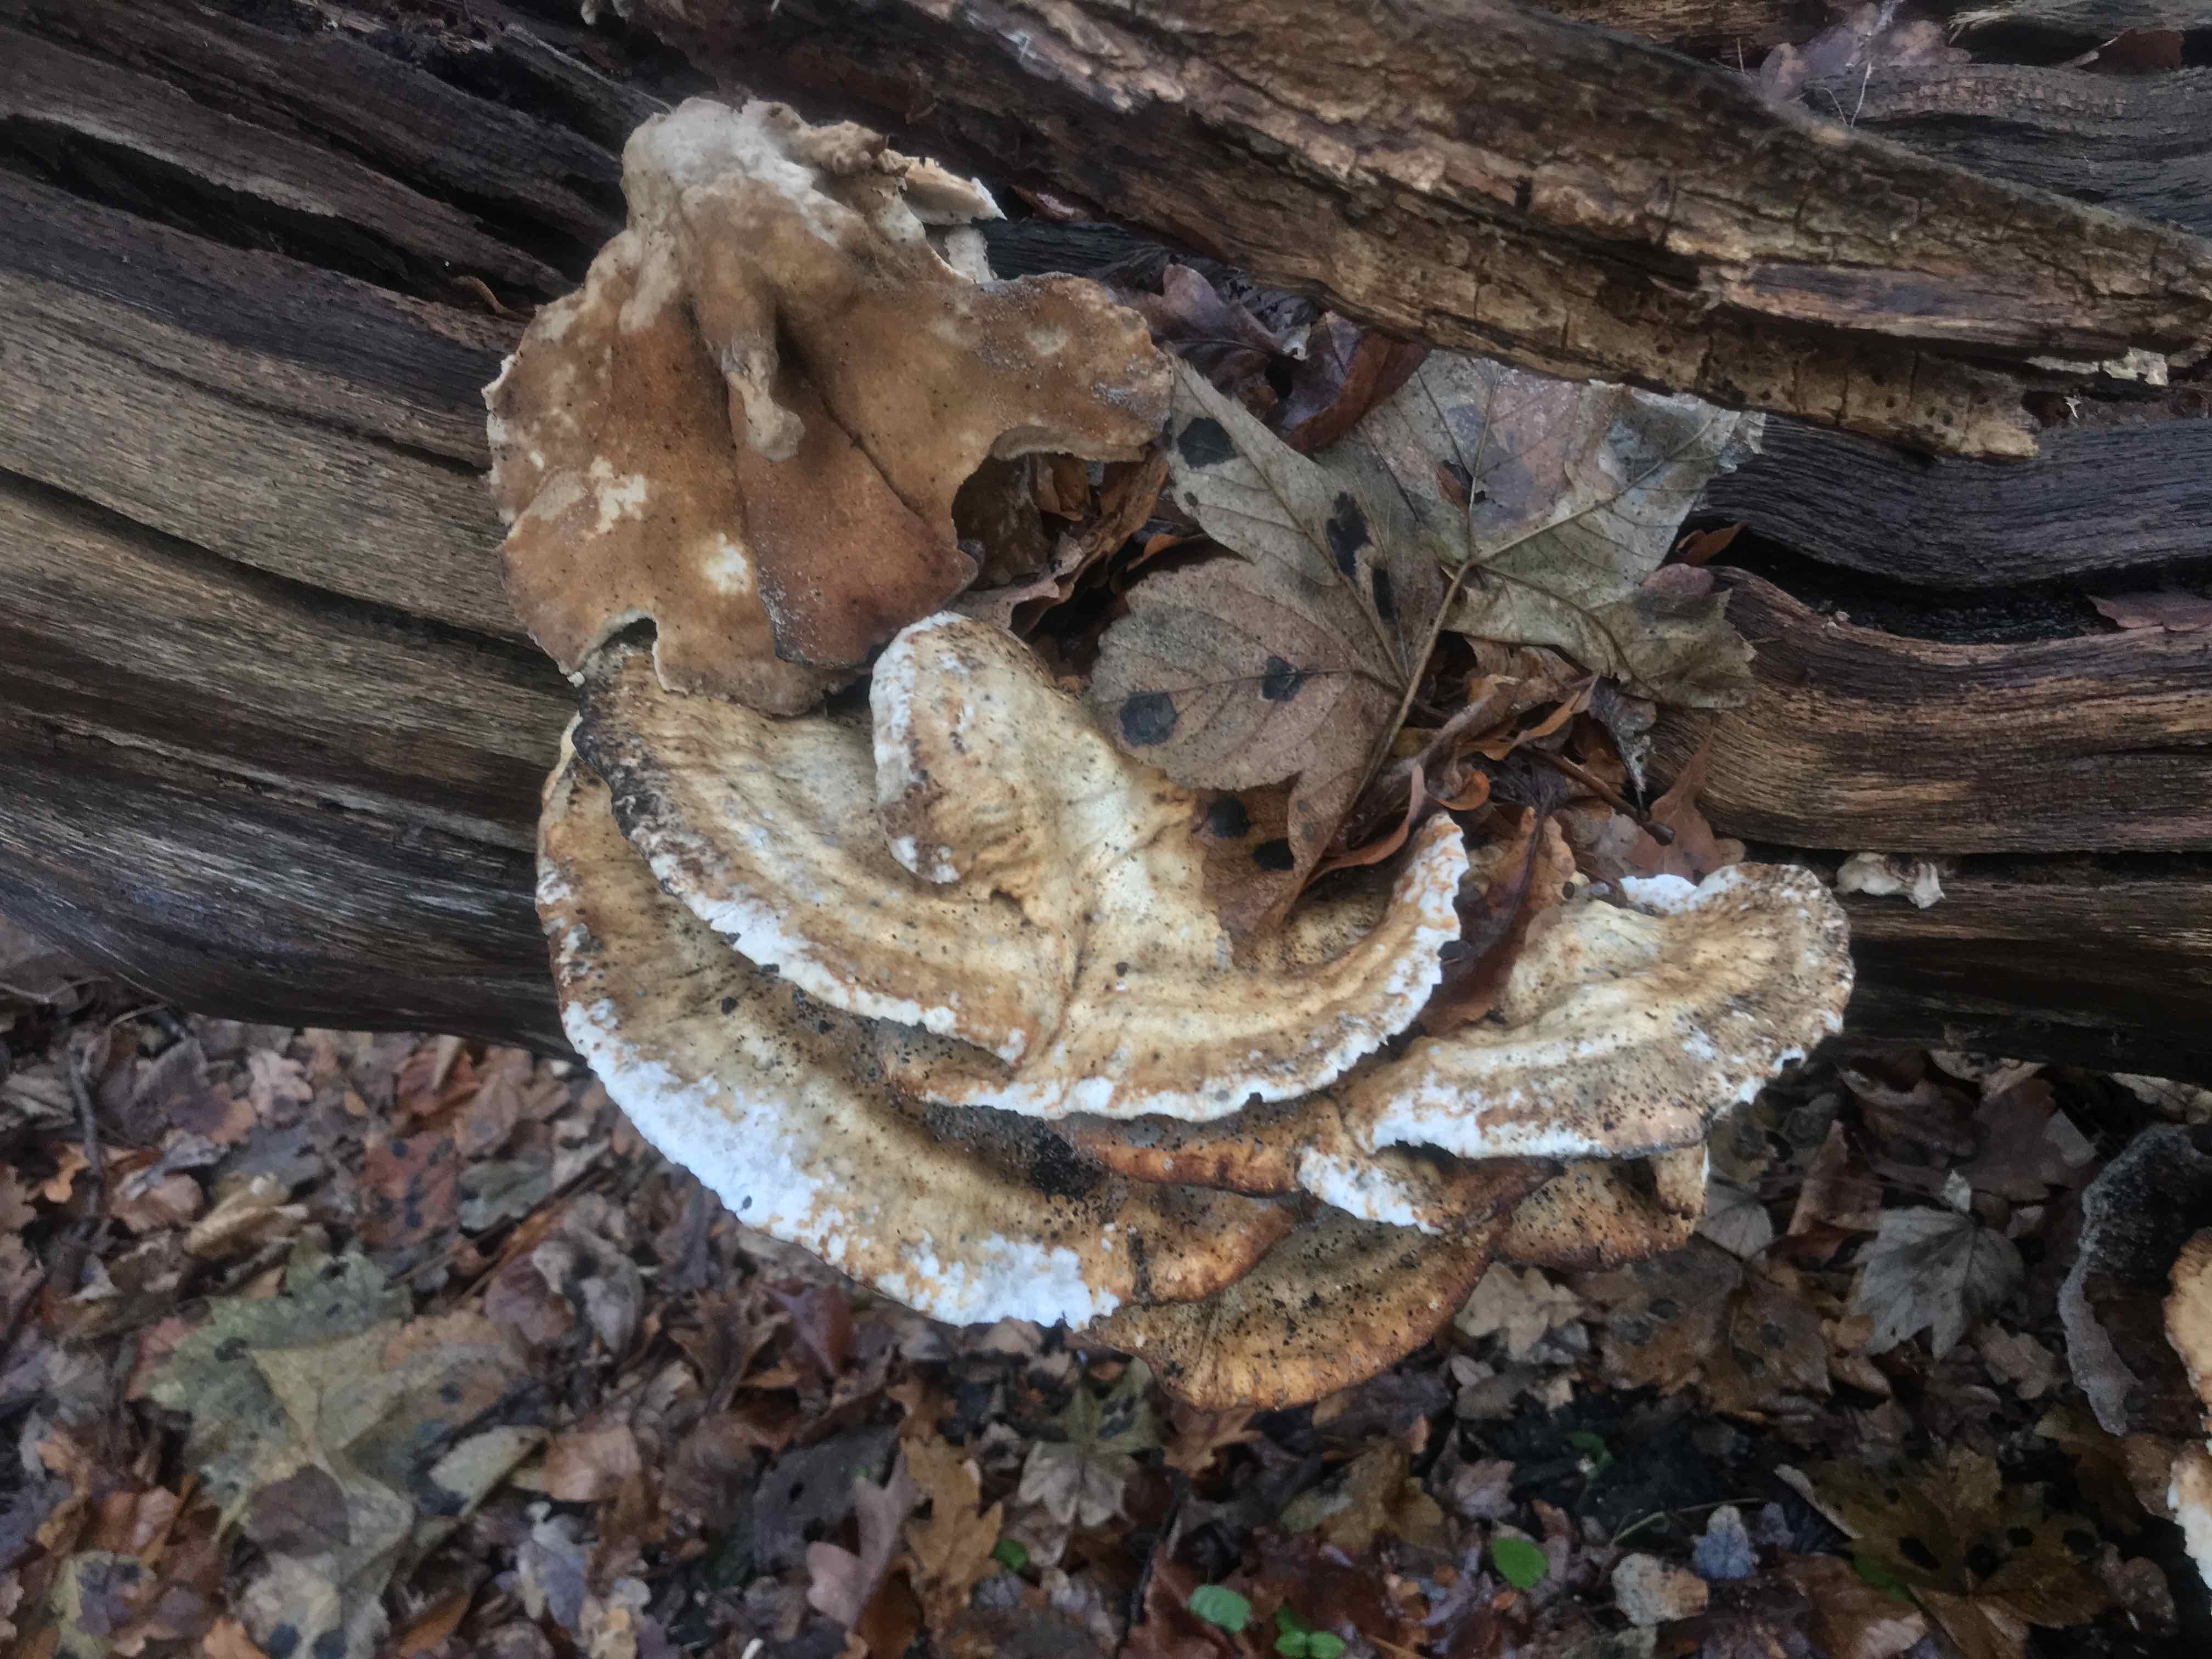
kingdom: Fungi
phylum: Basidiomycota
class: Agaricomycetes
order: Polyporales
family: Laetiporaceae
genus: Laetiporus
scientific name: Laetiporus sulphureus
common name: svovlporesvamp
